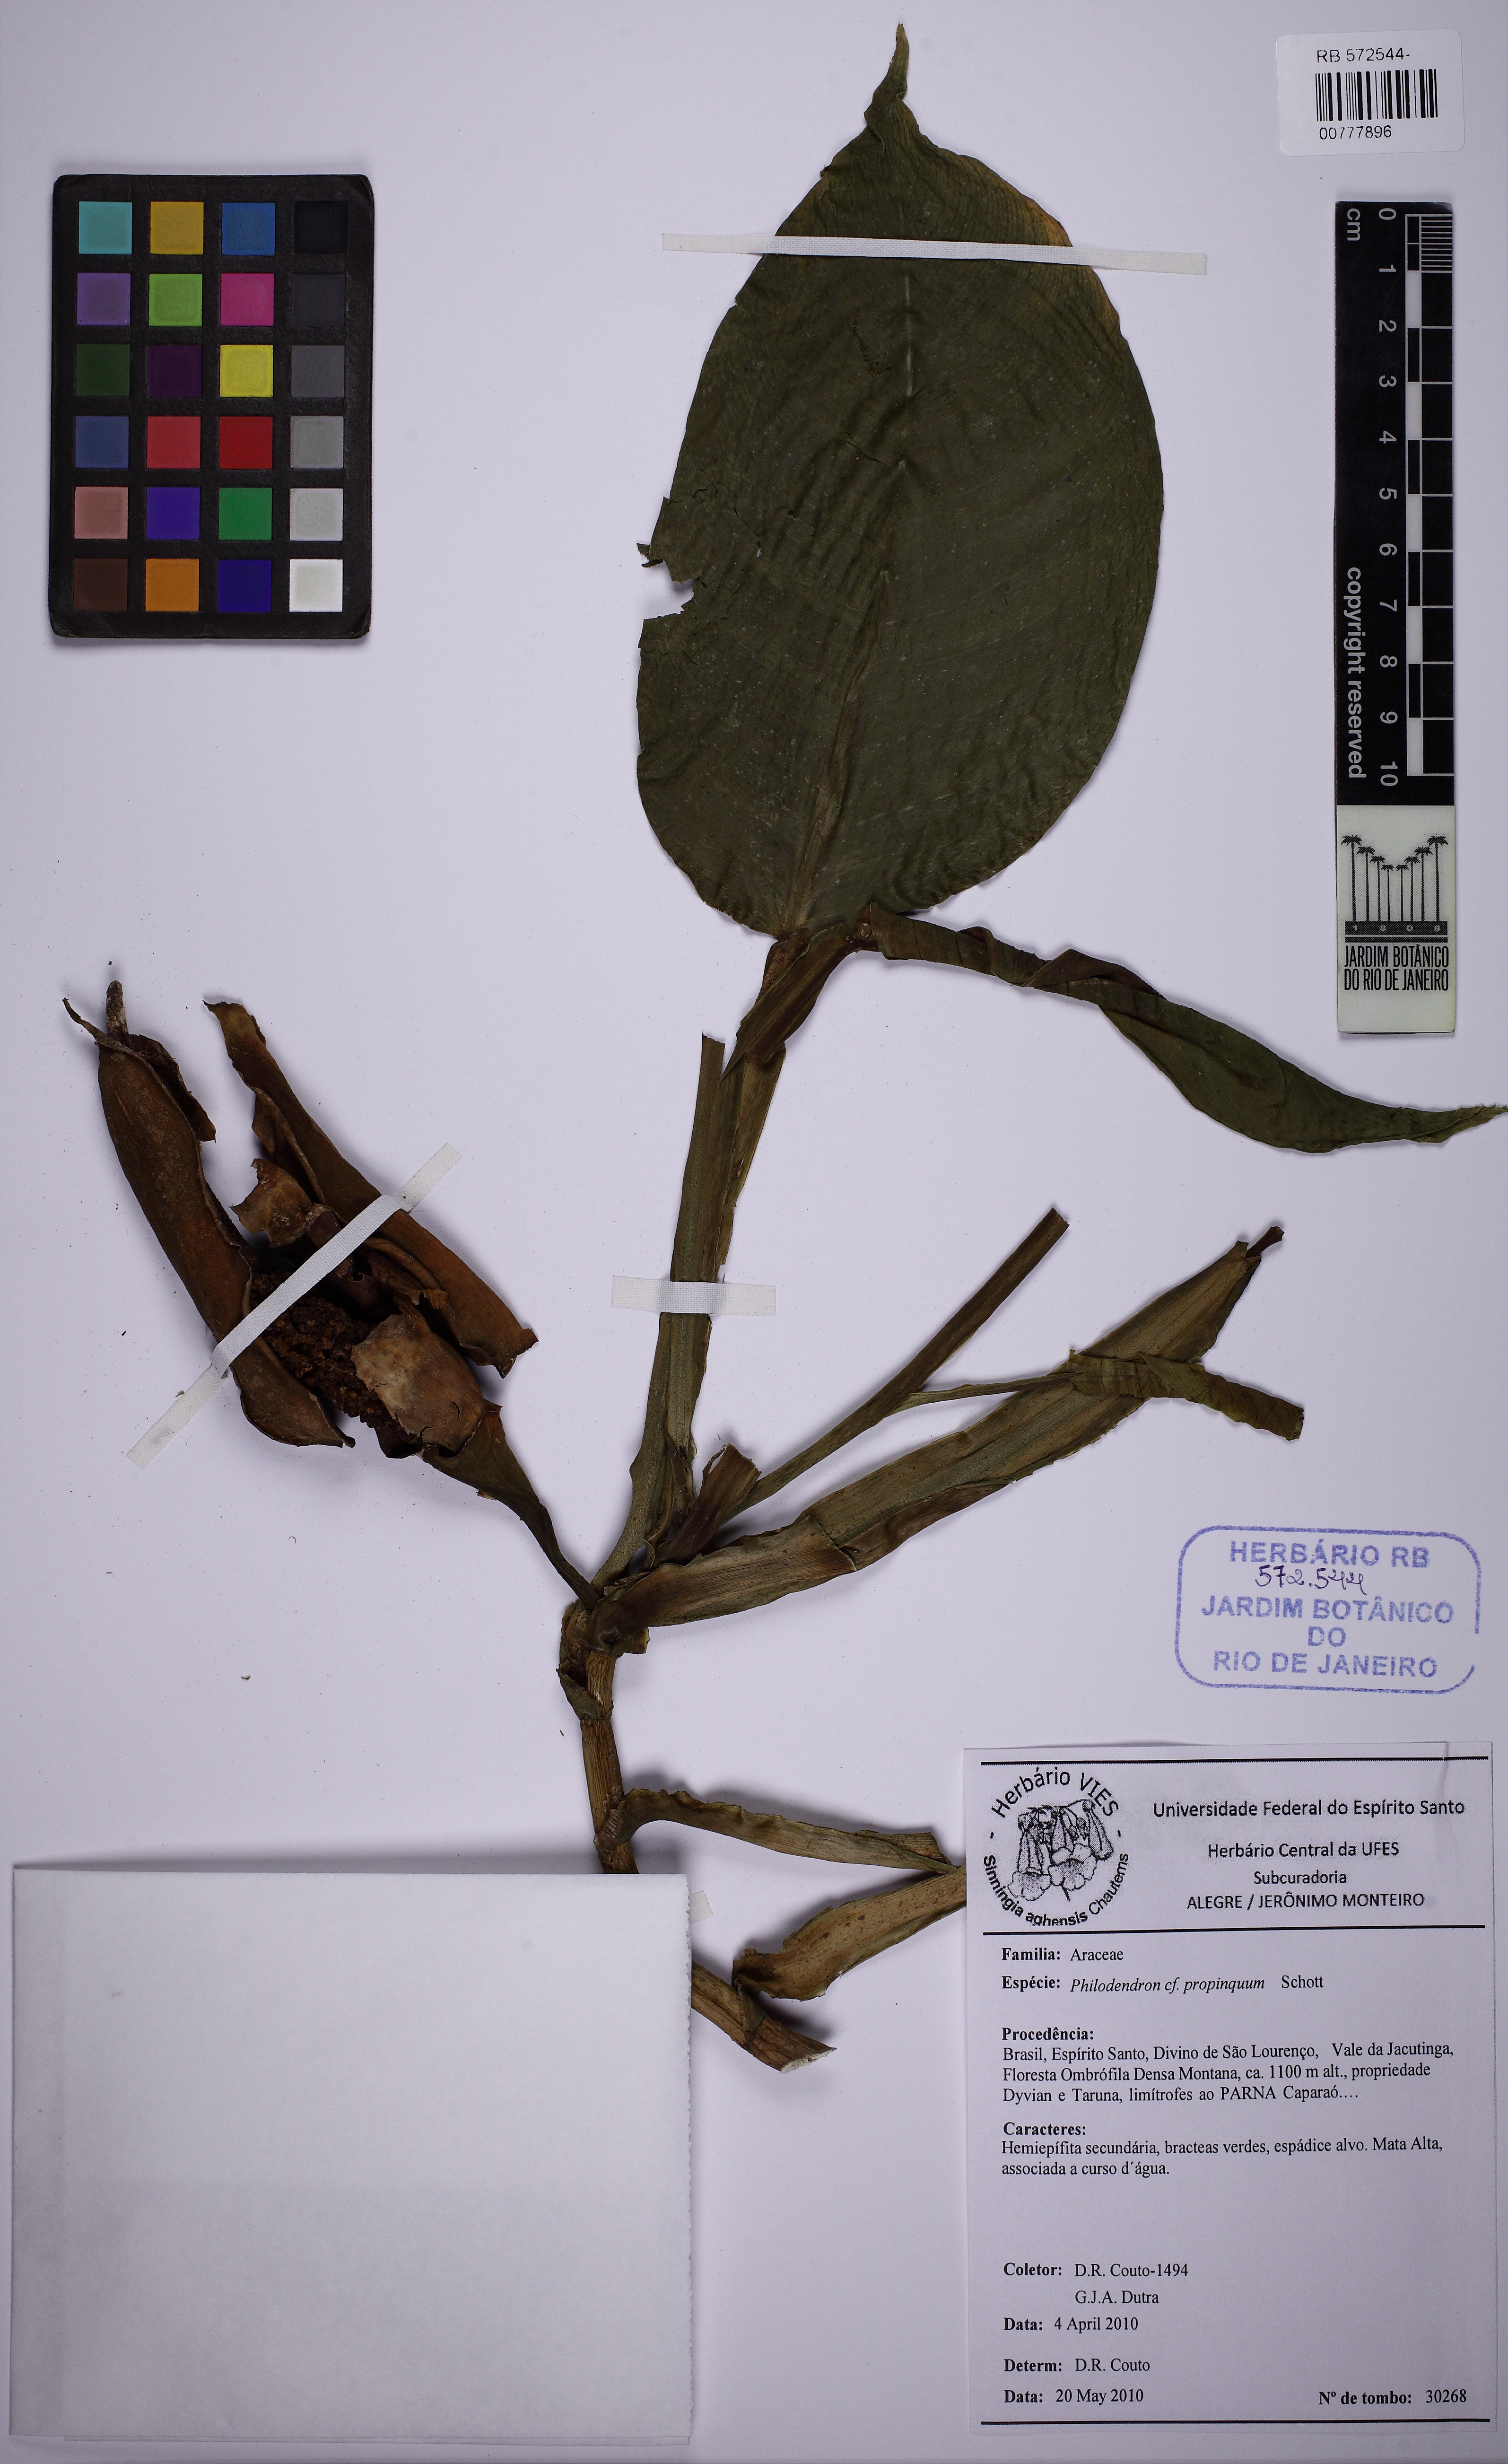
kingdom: Plantae
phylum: Tracheophyta
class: Liliopsida
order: Alismatales
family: Araceae
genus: Philodendron
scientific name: Philodendron propinquum
